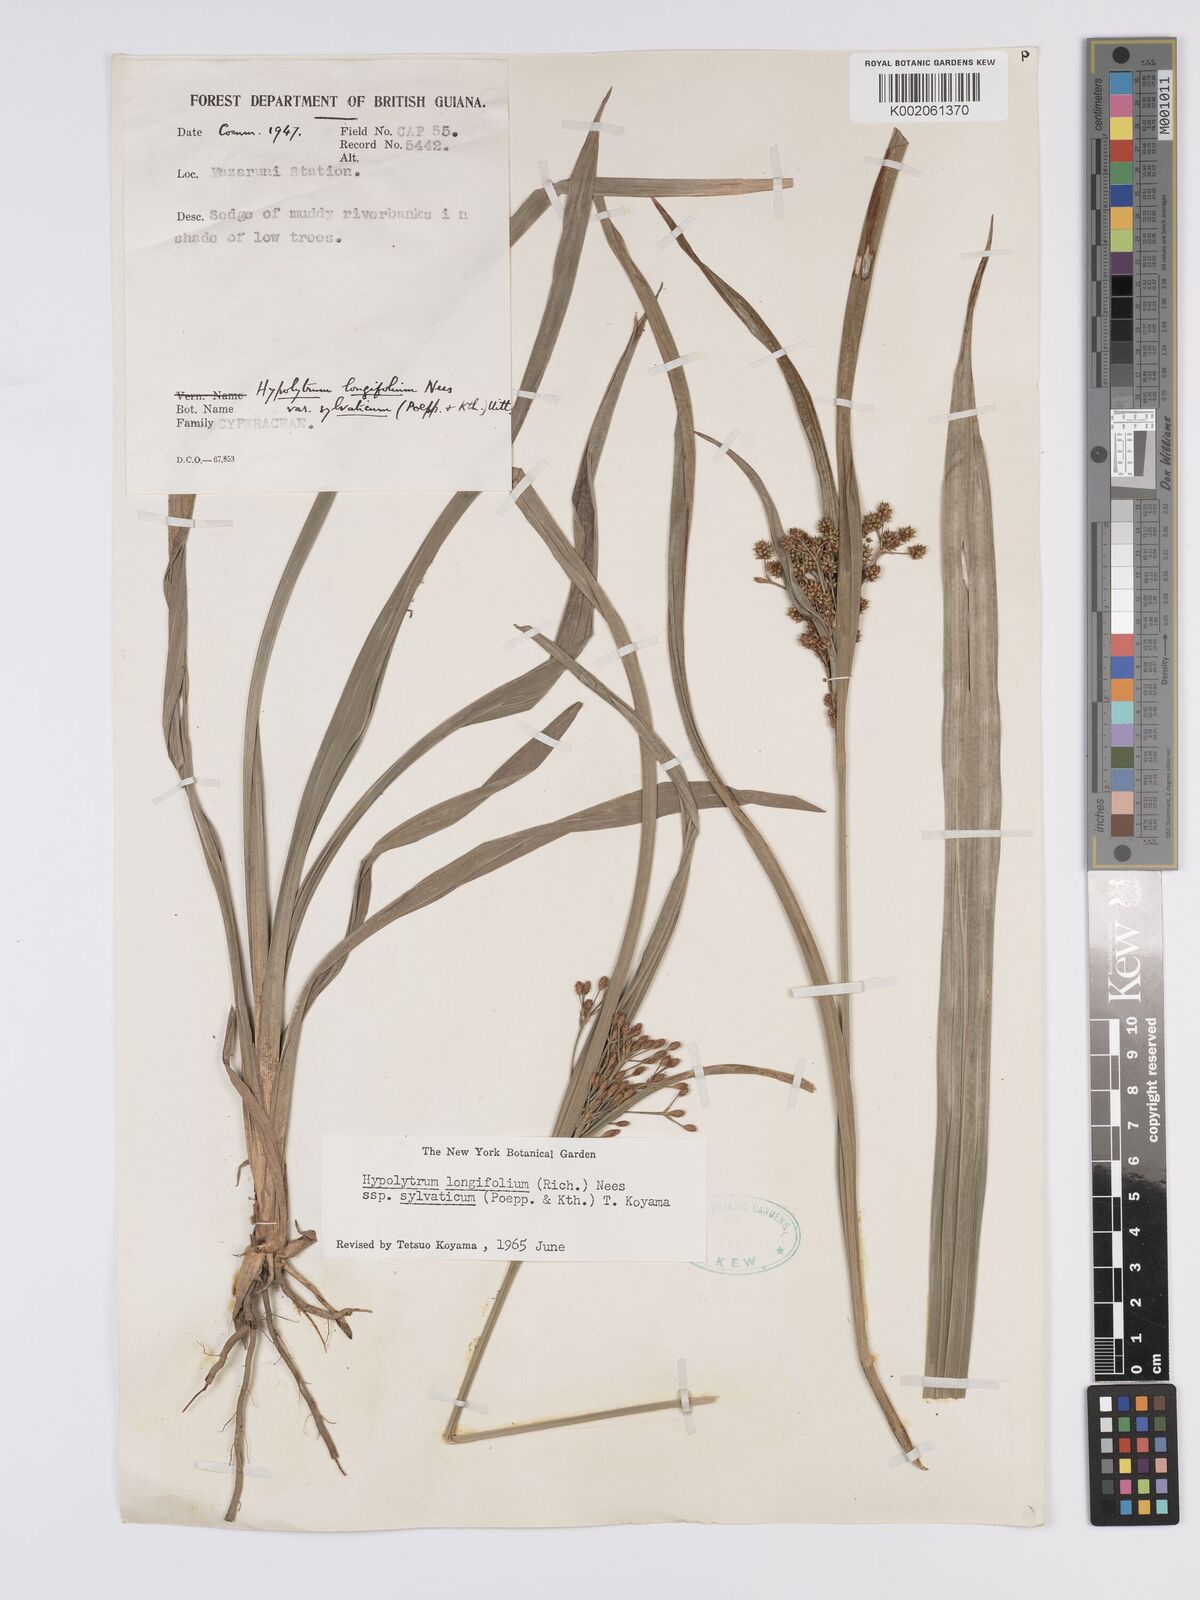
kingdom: Plantae
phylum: Tracheophyta
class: Liliopsida
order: Poales
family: Cyperaceae
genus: Hypolytrum
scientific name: Hypolytrum longifolium
